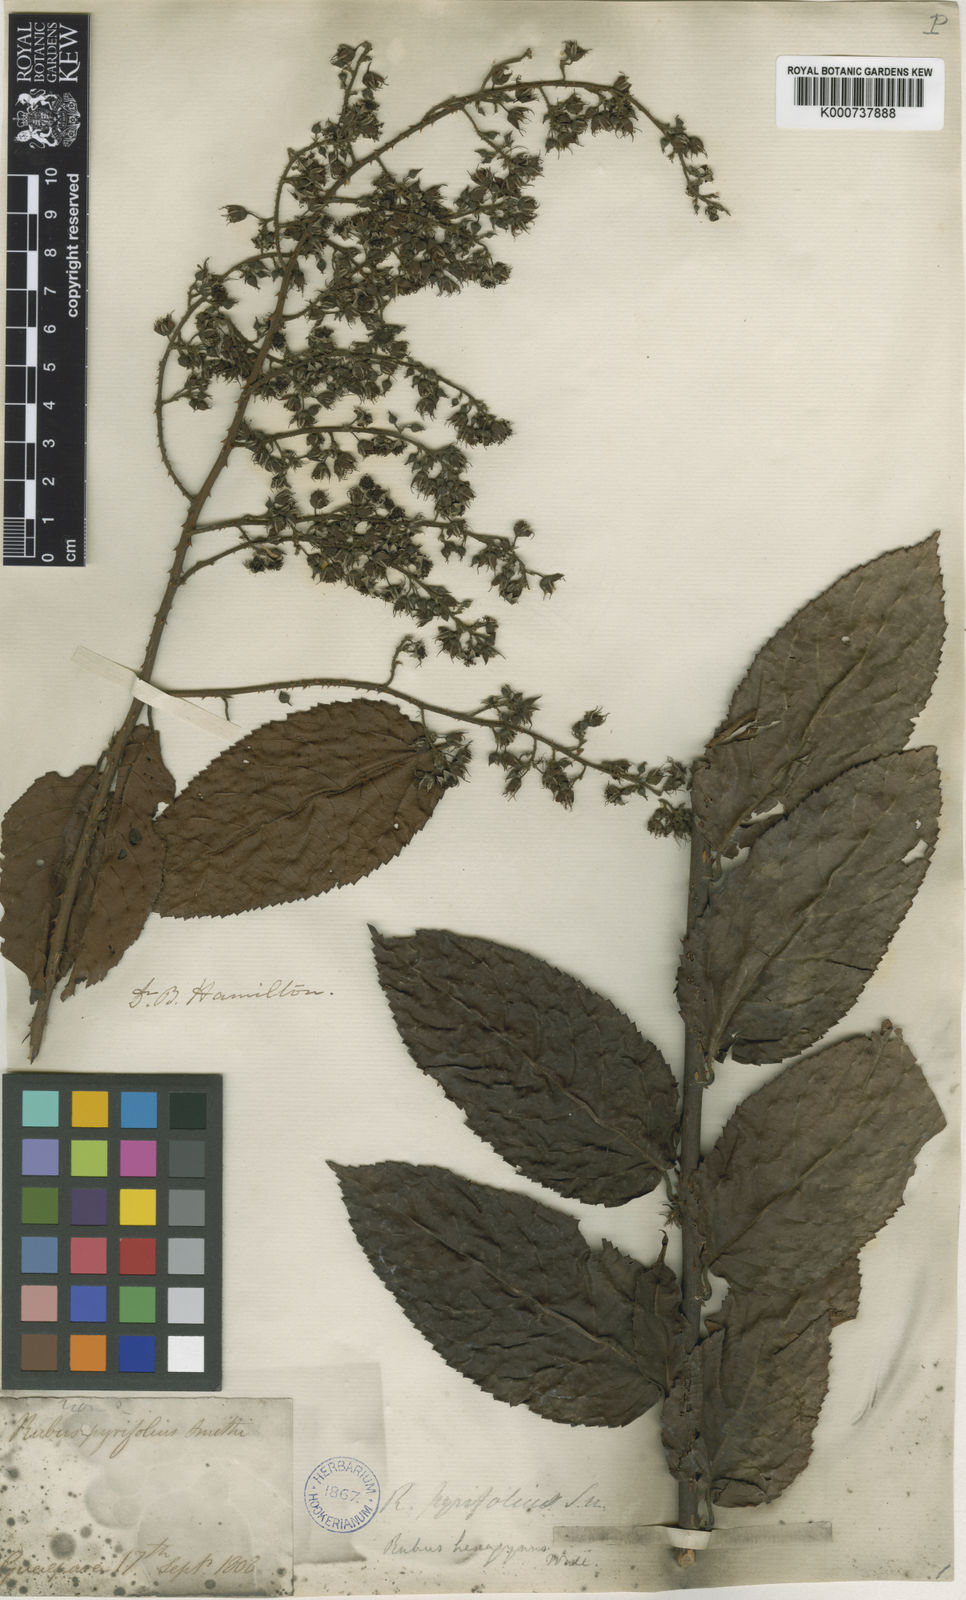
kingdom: Plantae
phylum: Tracheophyta
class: Magnoliopsida
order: Rosales
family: Rosaceae
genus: Rubus
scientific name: Rubus hamiltonii
